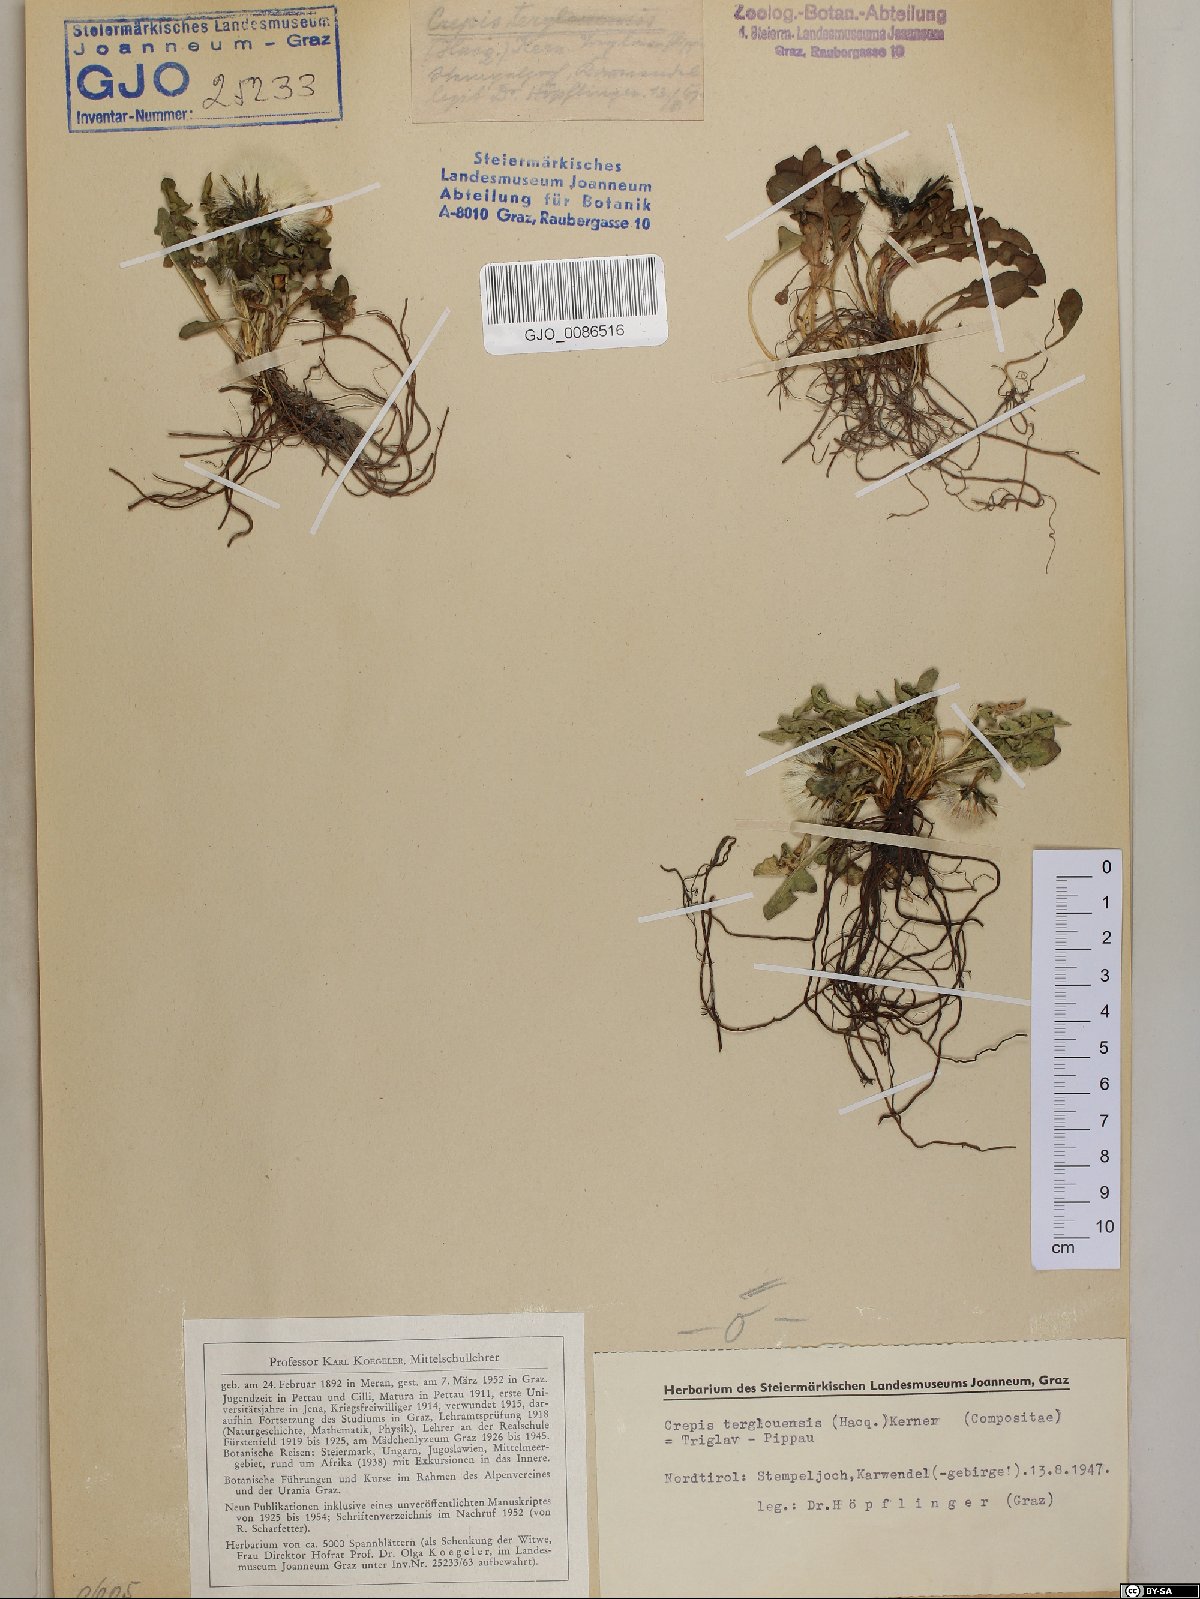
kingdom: Plantae
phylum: Tracheophyta
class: Magnoliopsida
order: Asterales
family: Asteraceae
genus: Crepis
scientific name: Crepis terglouensis
